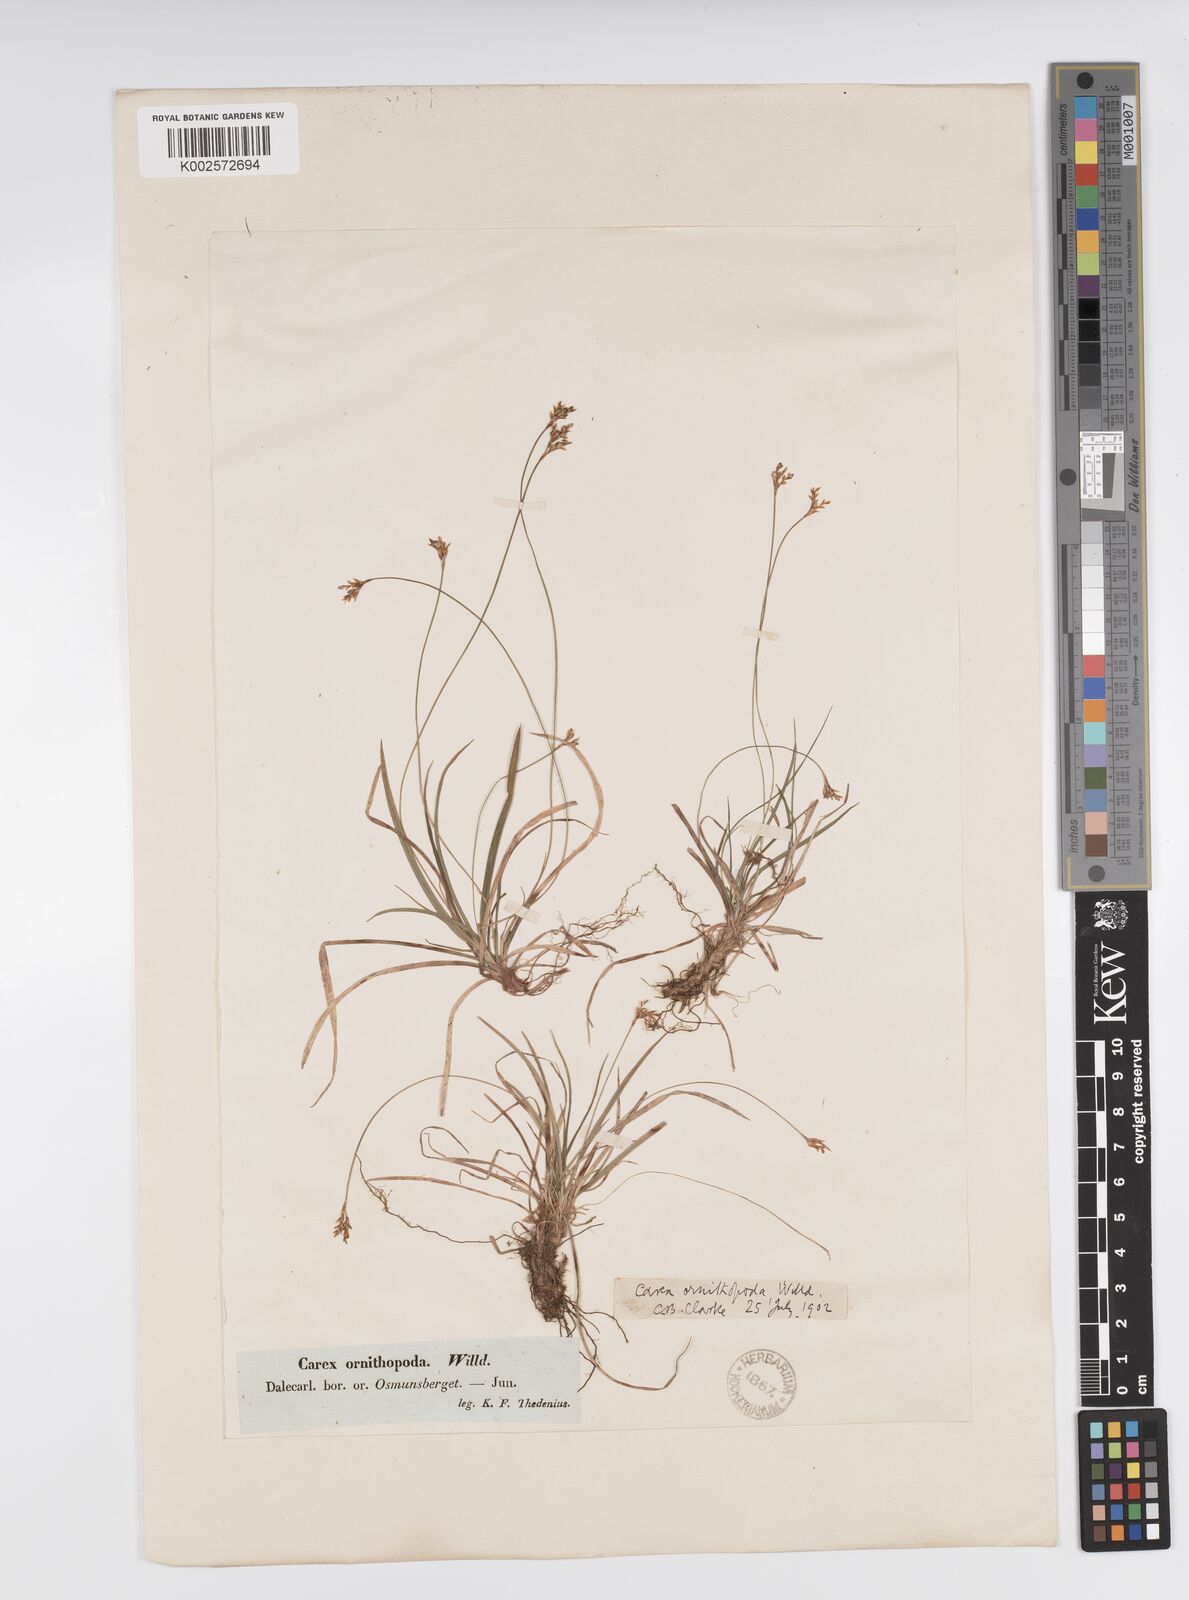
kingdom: Plantae
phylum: Tracheophyta
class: Liliopsida
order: Poales
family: Cyperaceae
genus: Carex
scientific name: Carex ornithopoda
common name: Bird's-foot sedge
